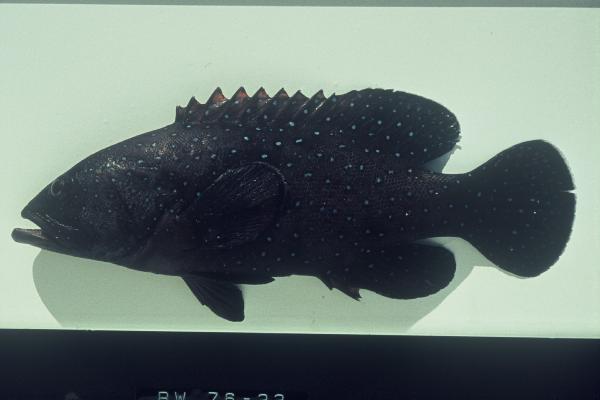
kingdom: Animalia
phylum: Chordata
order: Perciformes
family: Serranidae
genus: Cephalopholis
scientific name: Cephalopholis argus
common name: Peacock grouper
